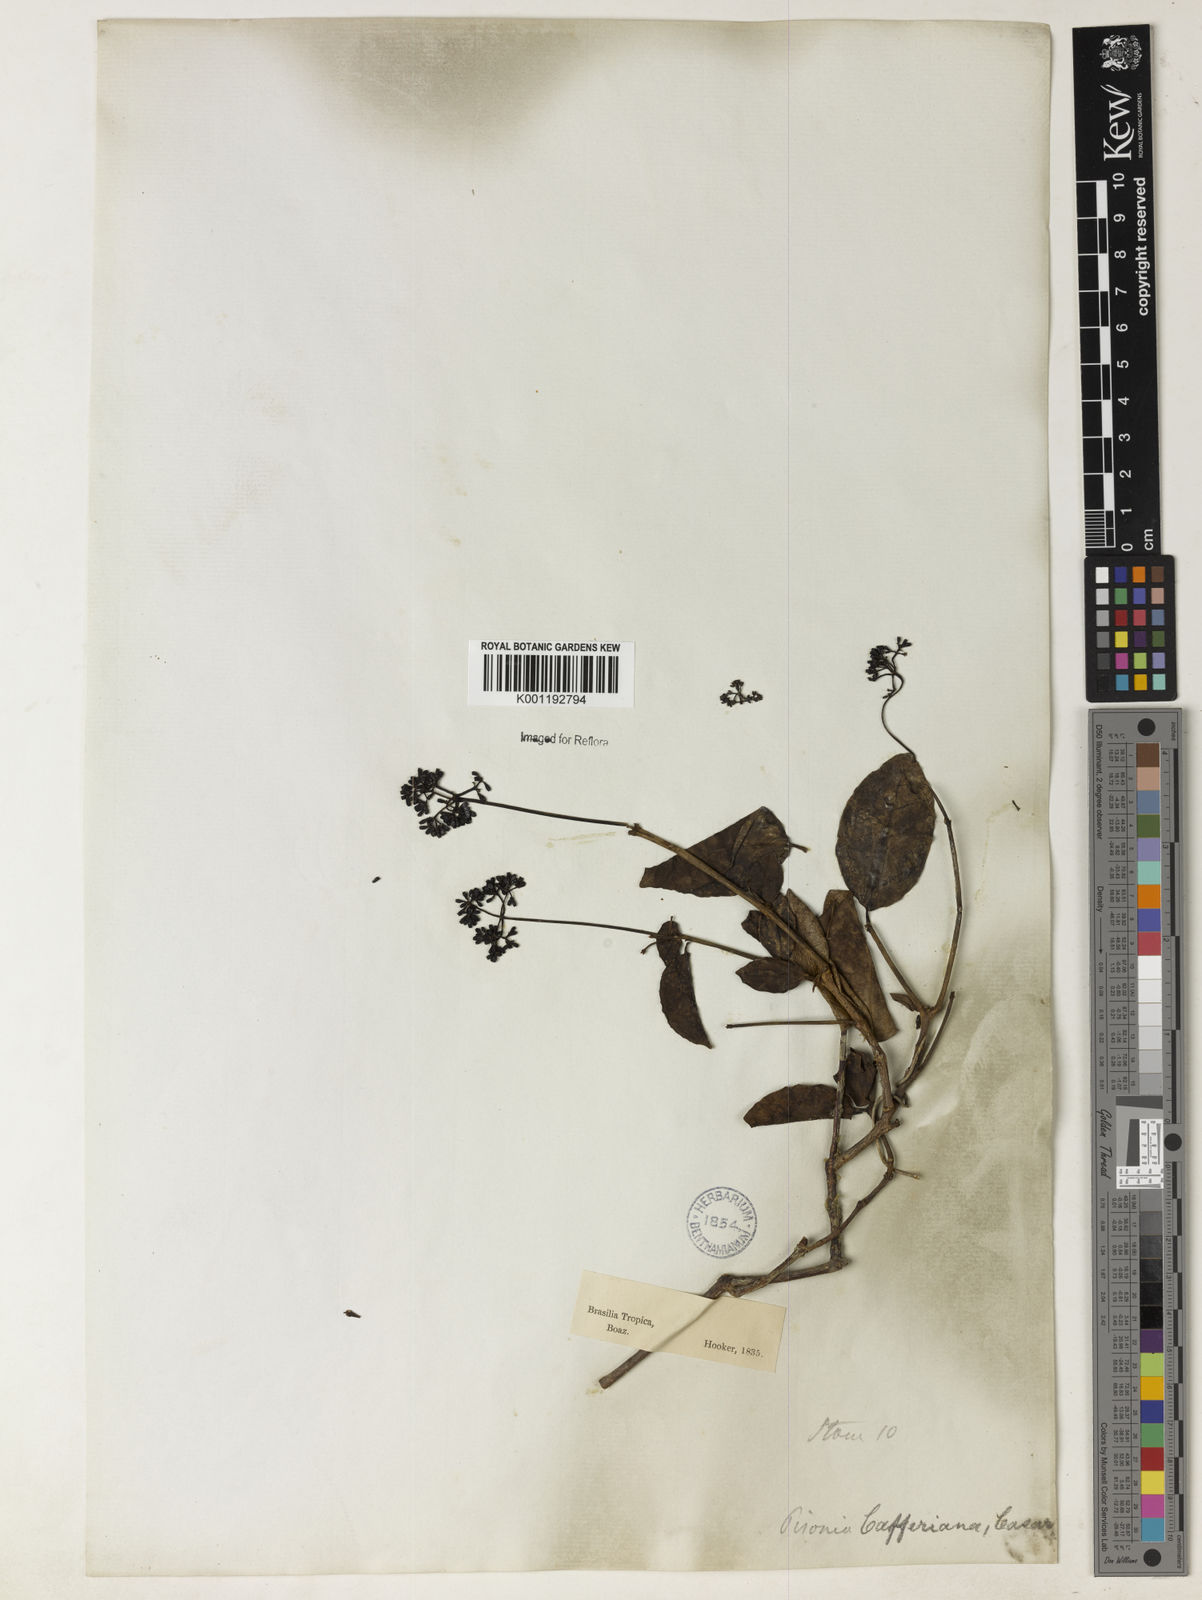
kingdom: Plantae
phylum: Tracheophyta
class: Magnoliopsida
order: Caryophyllales
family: Nyctaginaceae
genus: Guapira
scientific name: Guapira opposita
